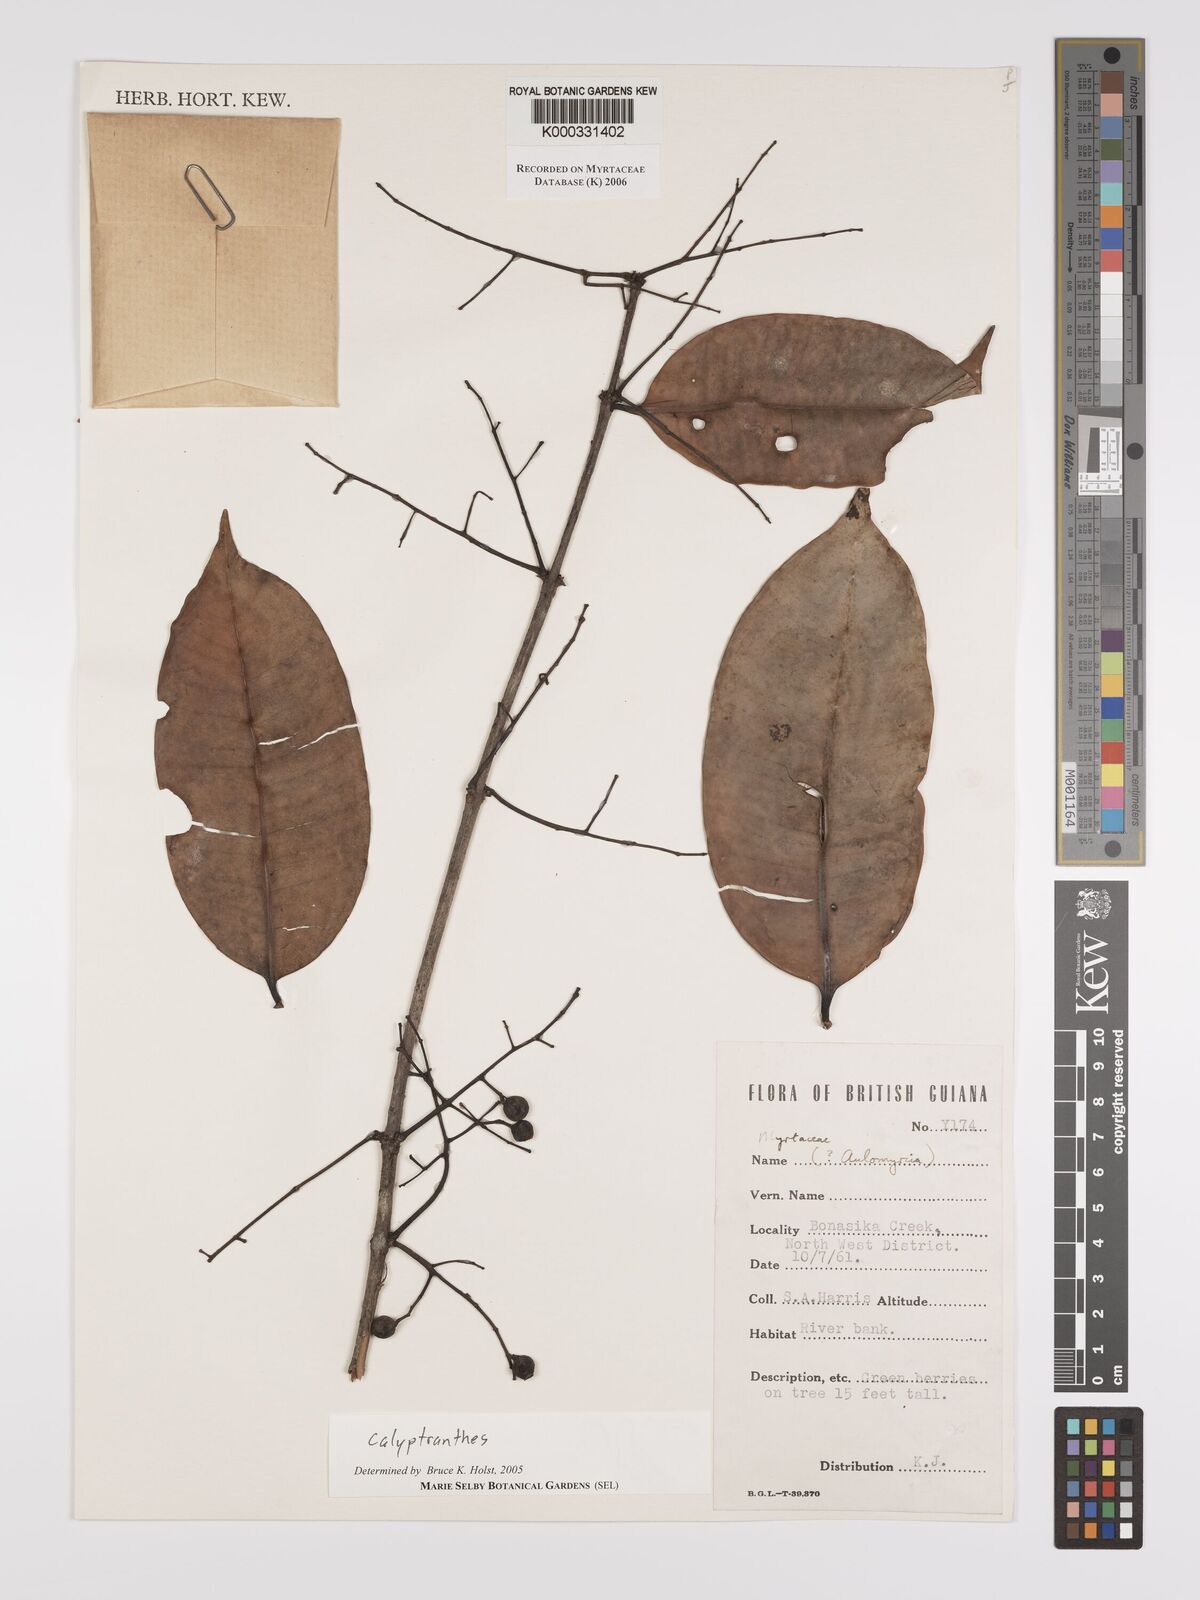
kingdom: Plantae
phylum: Tracheophyta
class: Magnoliopsida
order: Myrtales
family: Myrtaceae
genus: Calyptranthes
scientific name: Calyptranthes
